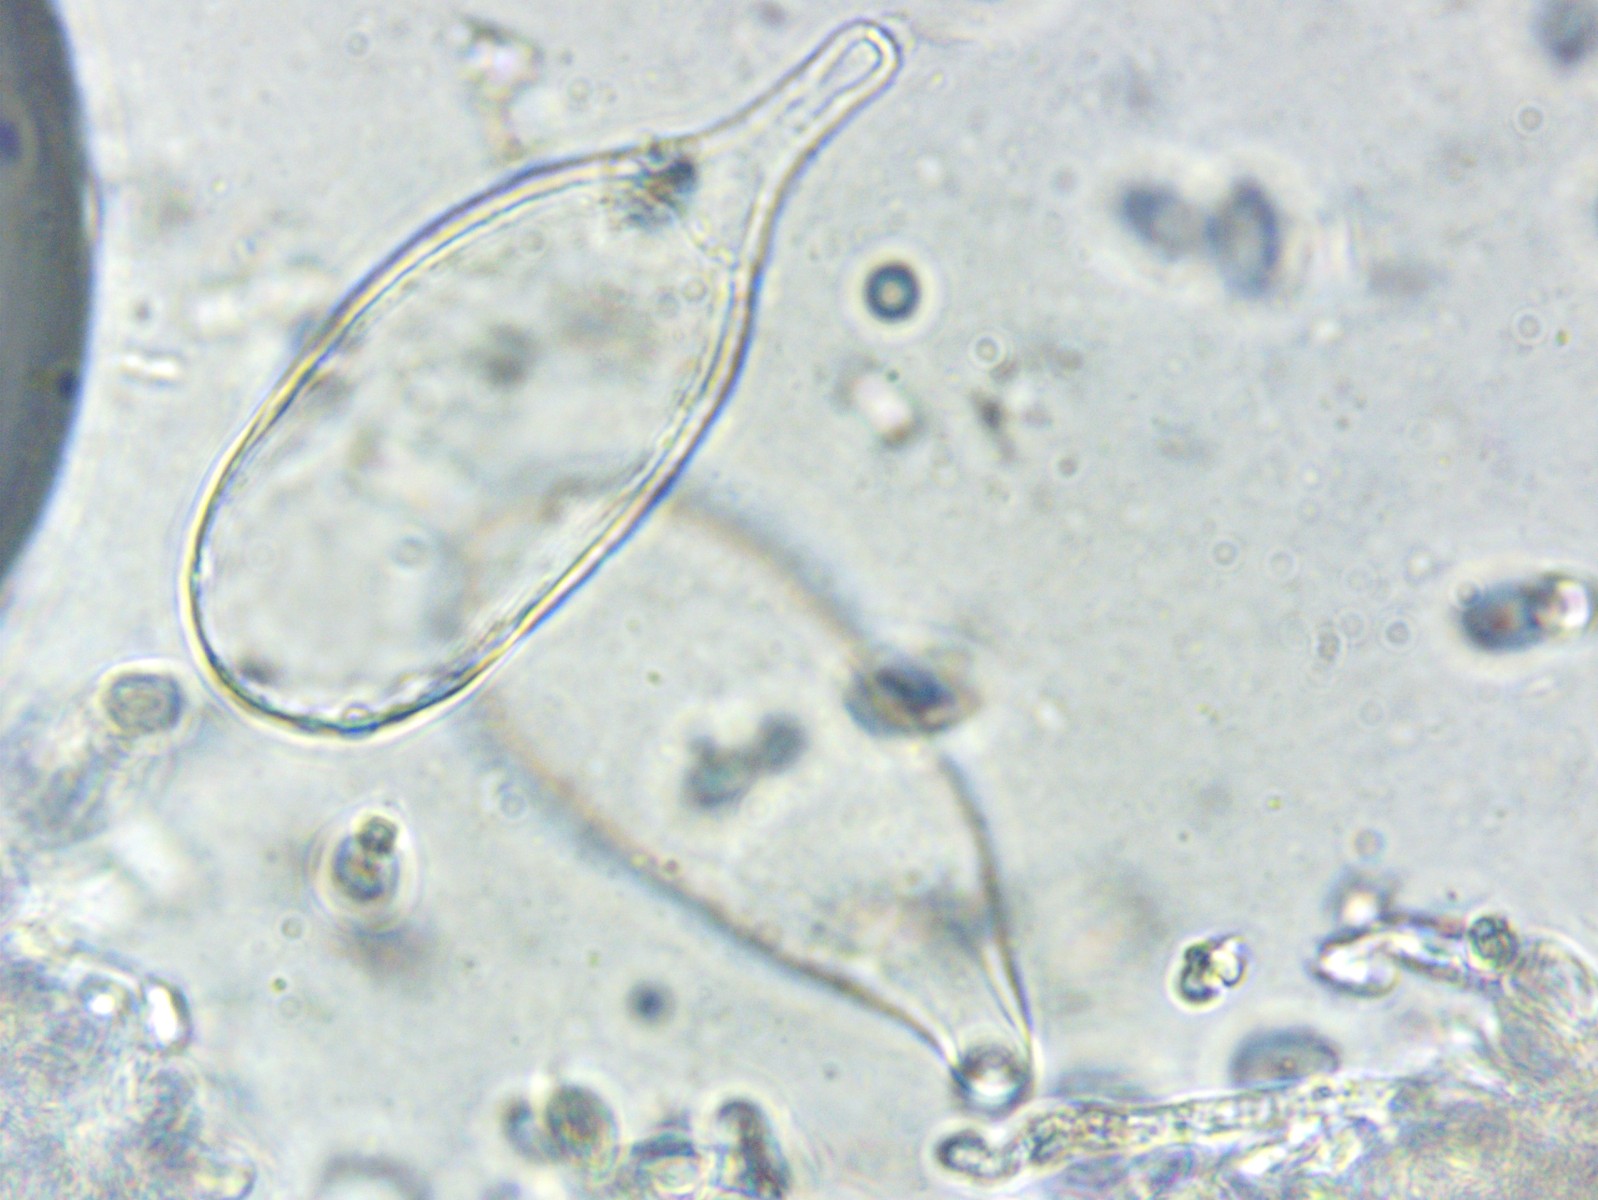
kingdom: Fungi
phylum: Basidiomycota
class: Agaricomycetes
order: Agaricales
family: Mycenaceae
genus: Mycena
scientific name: Mycena zephirus
